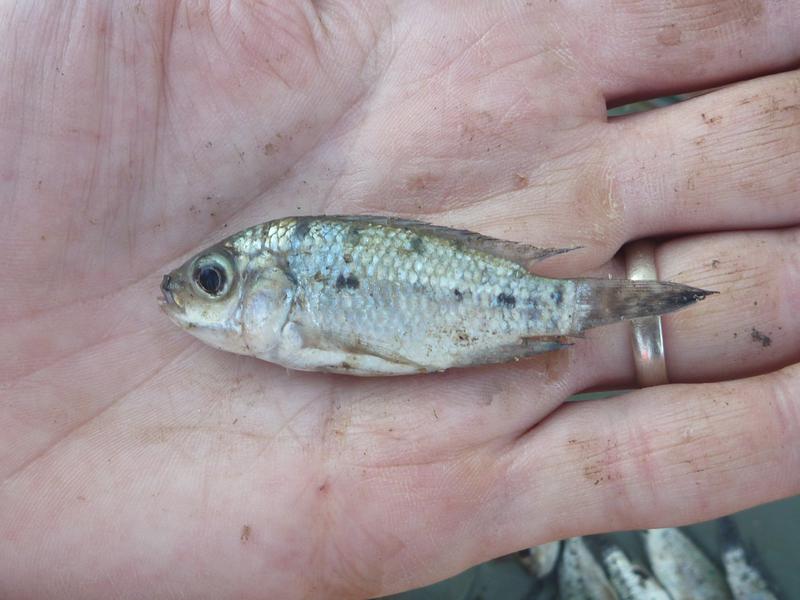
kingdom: Animalia
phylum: Chordata
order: Perciformes
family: Cichlidae
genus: Oreochromis
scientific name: Oreochromis korogwe
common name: Korogwe tilapia
